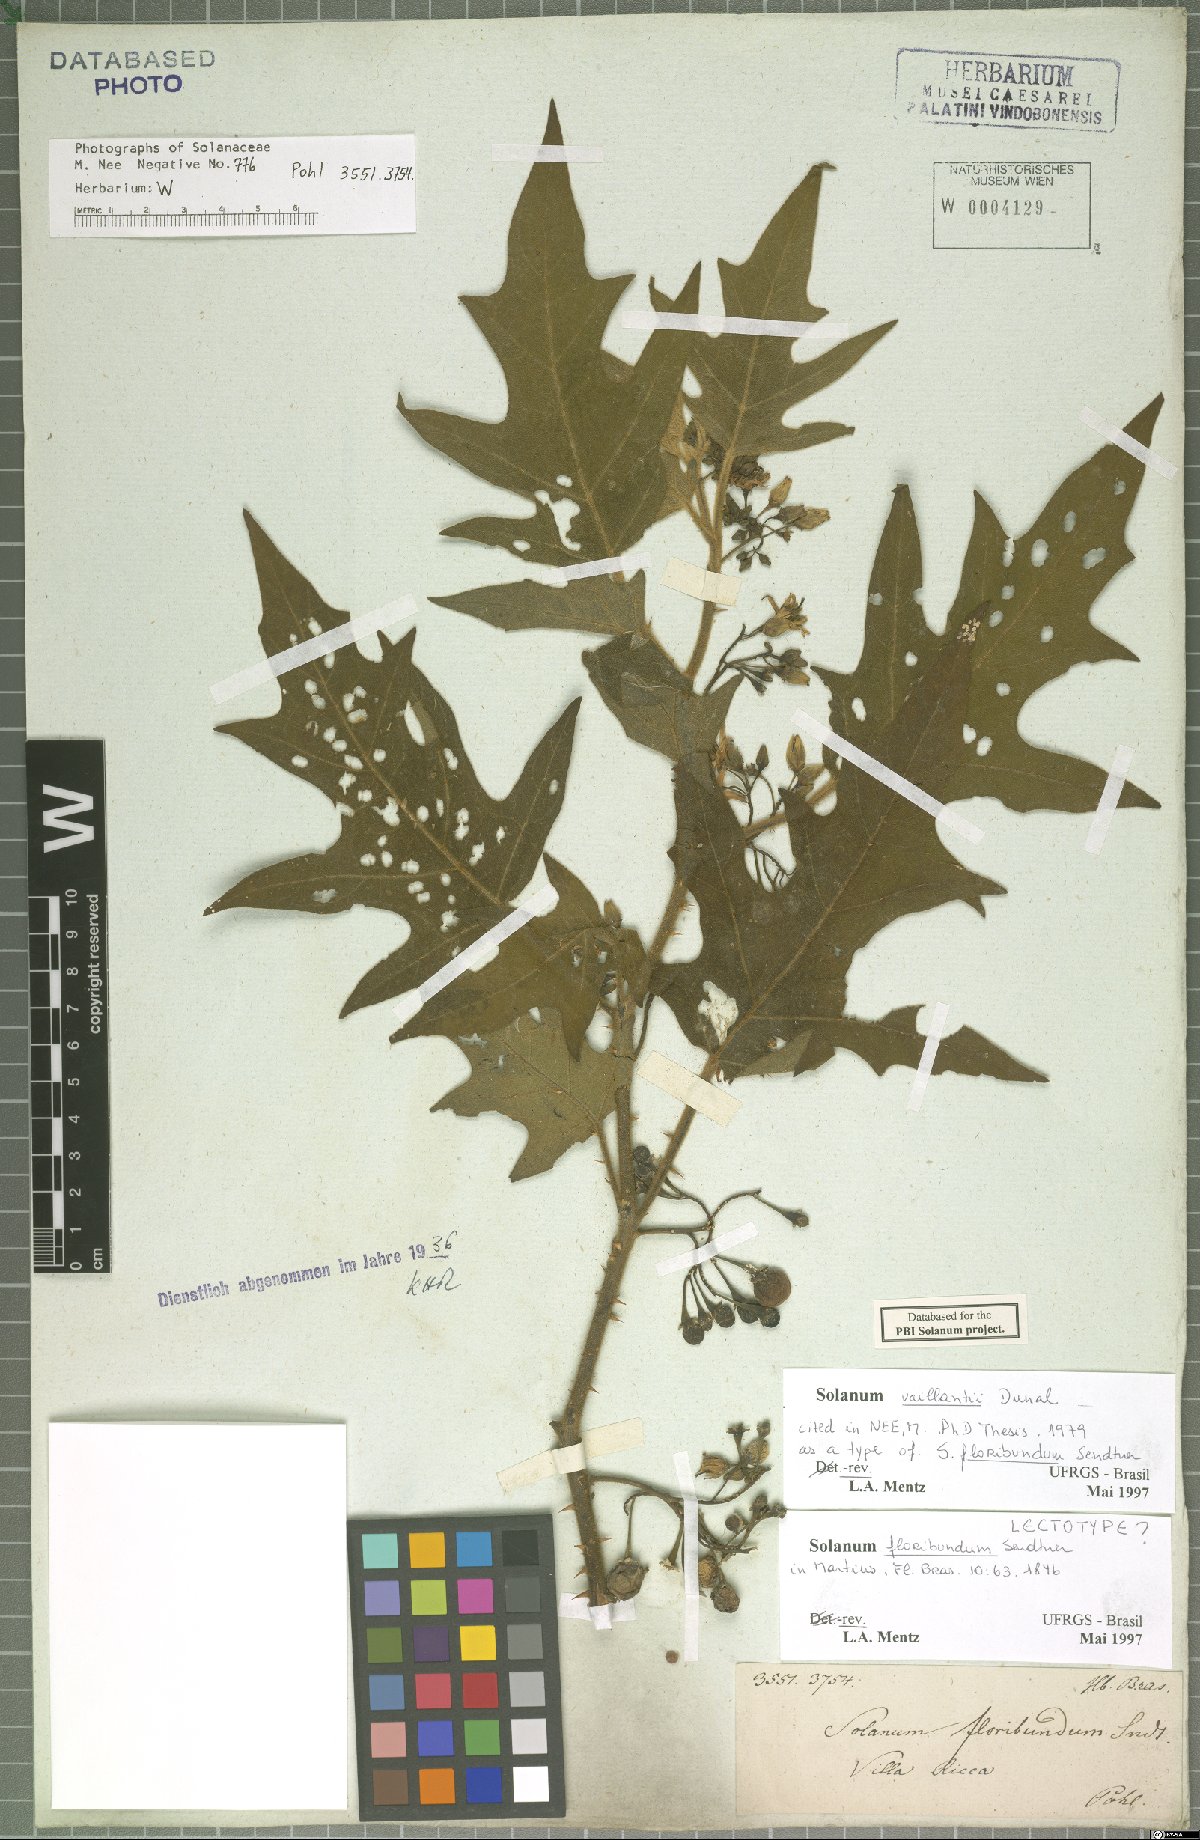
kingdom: Plantae
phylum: Tracheophyta
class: Magnoliopsida
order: Solanales
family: Solanaceae
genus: Solanum
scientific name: Solanum vaillantii
